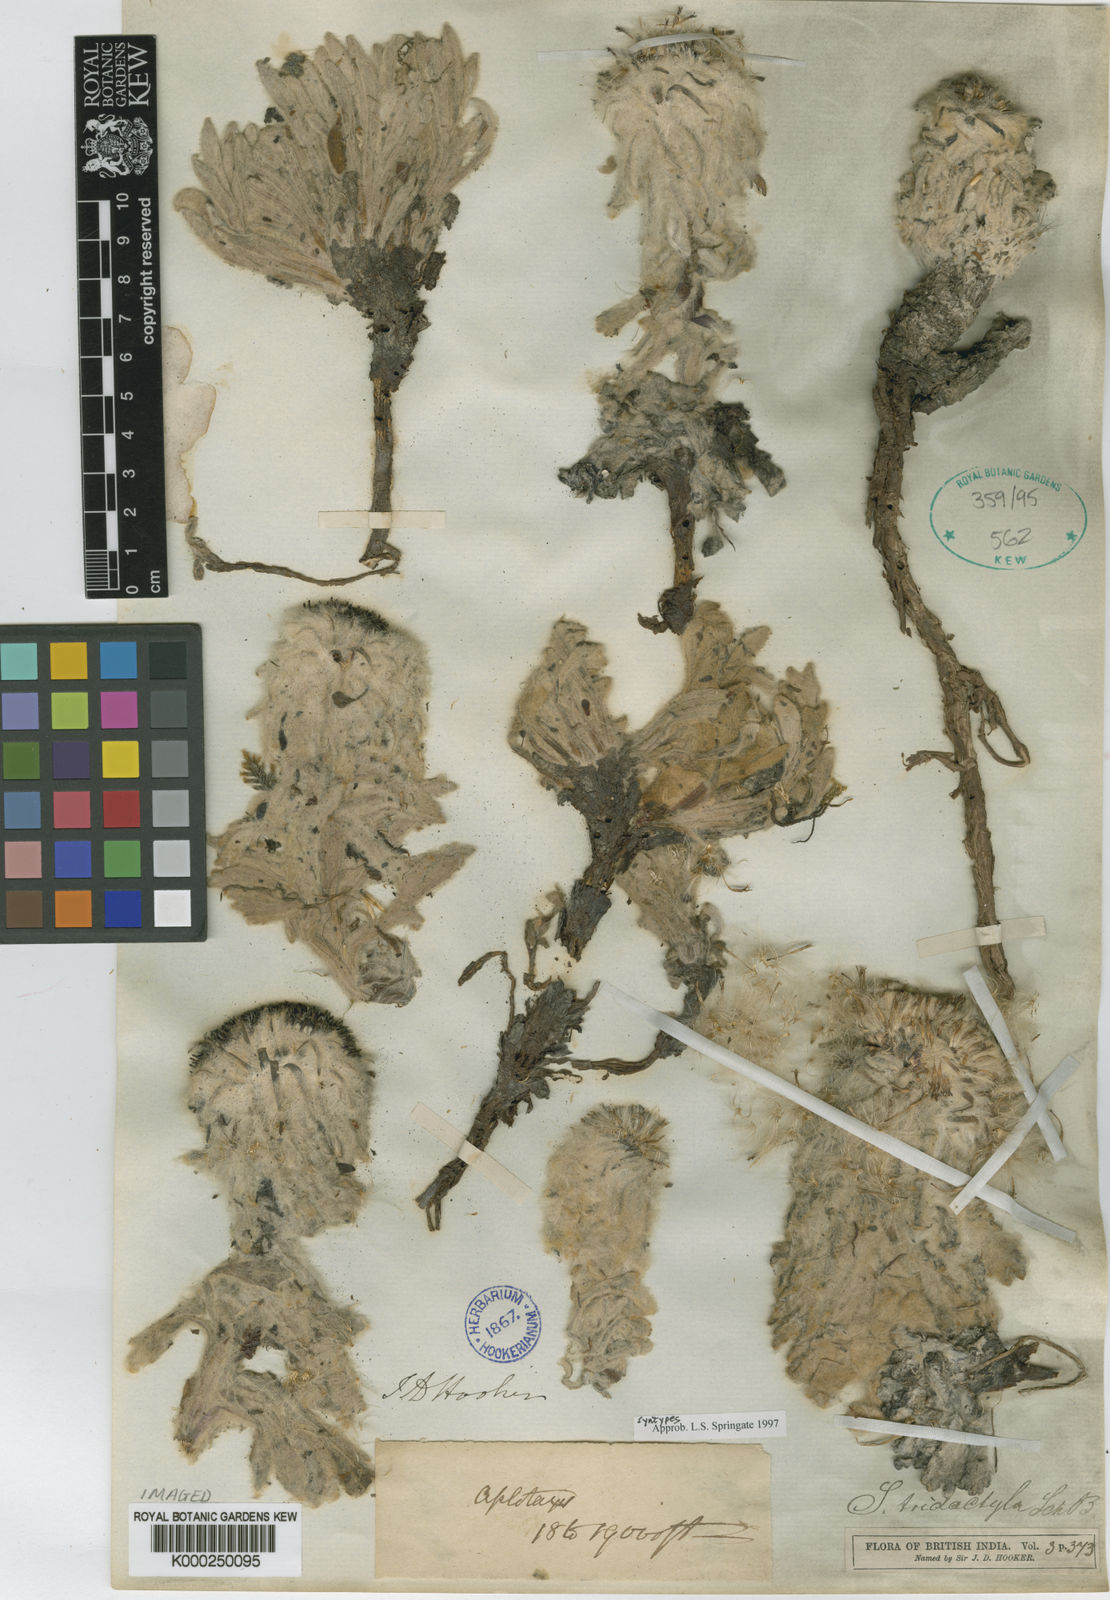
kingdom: Plantae
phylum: Tracheophyta
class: Magnoliopsida
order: Asterales
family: Asteraceae
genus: Saussurea
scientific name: Saussurea tridactyla
